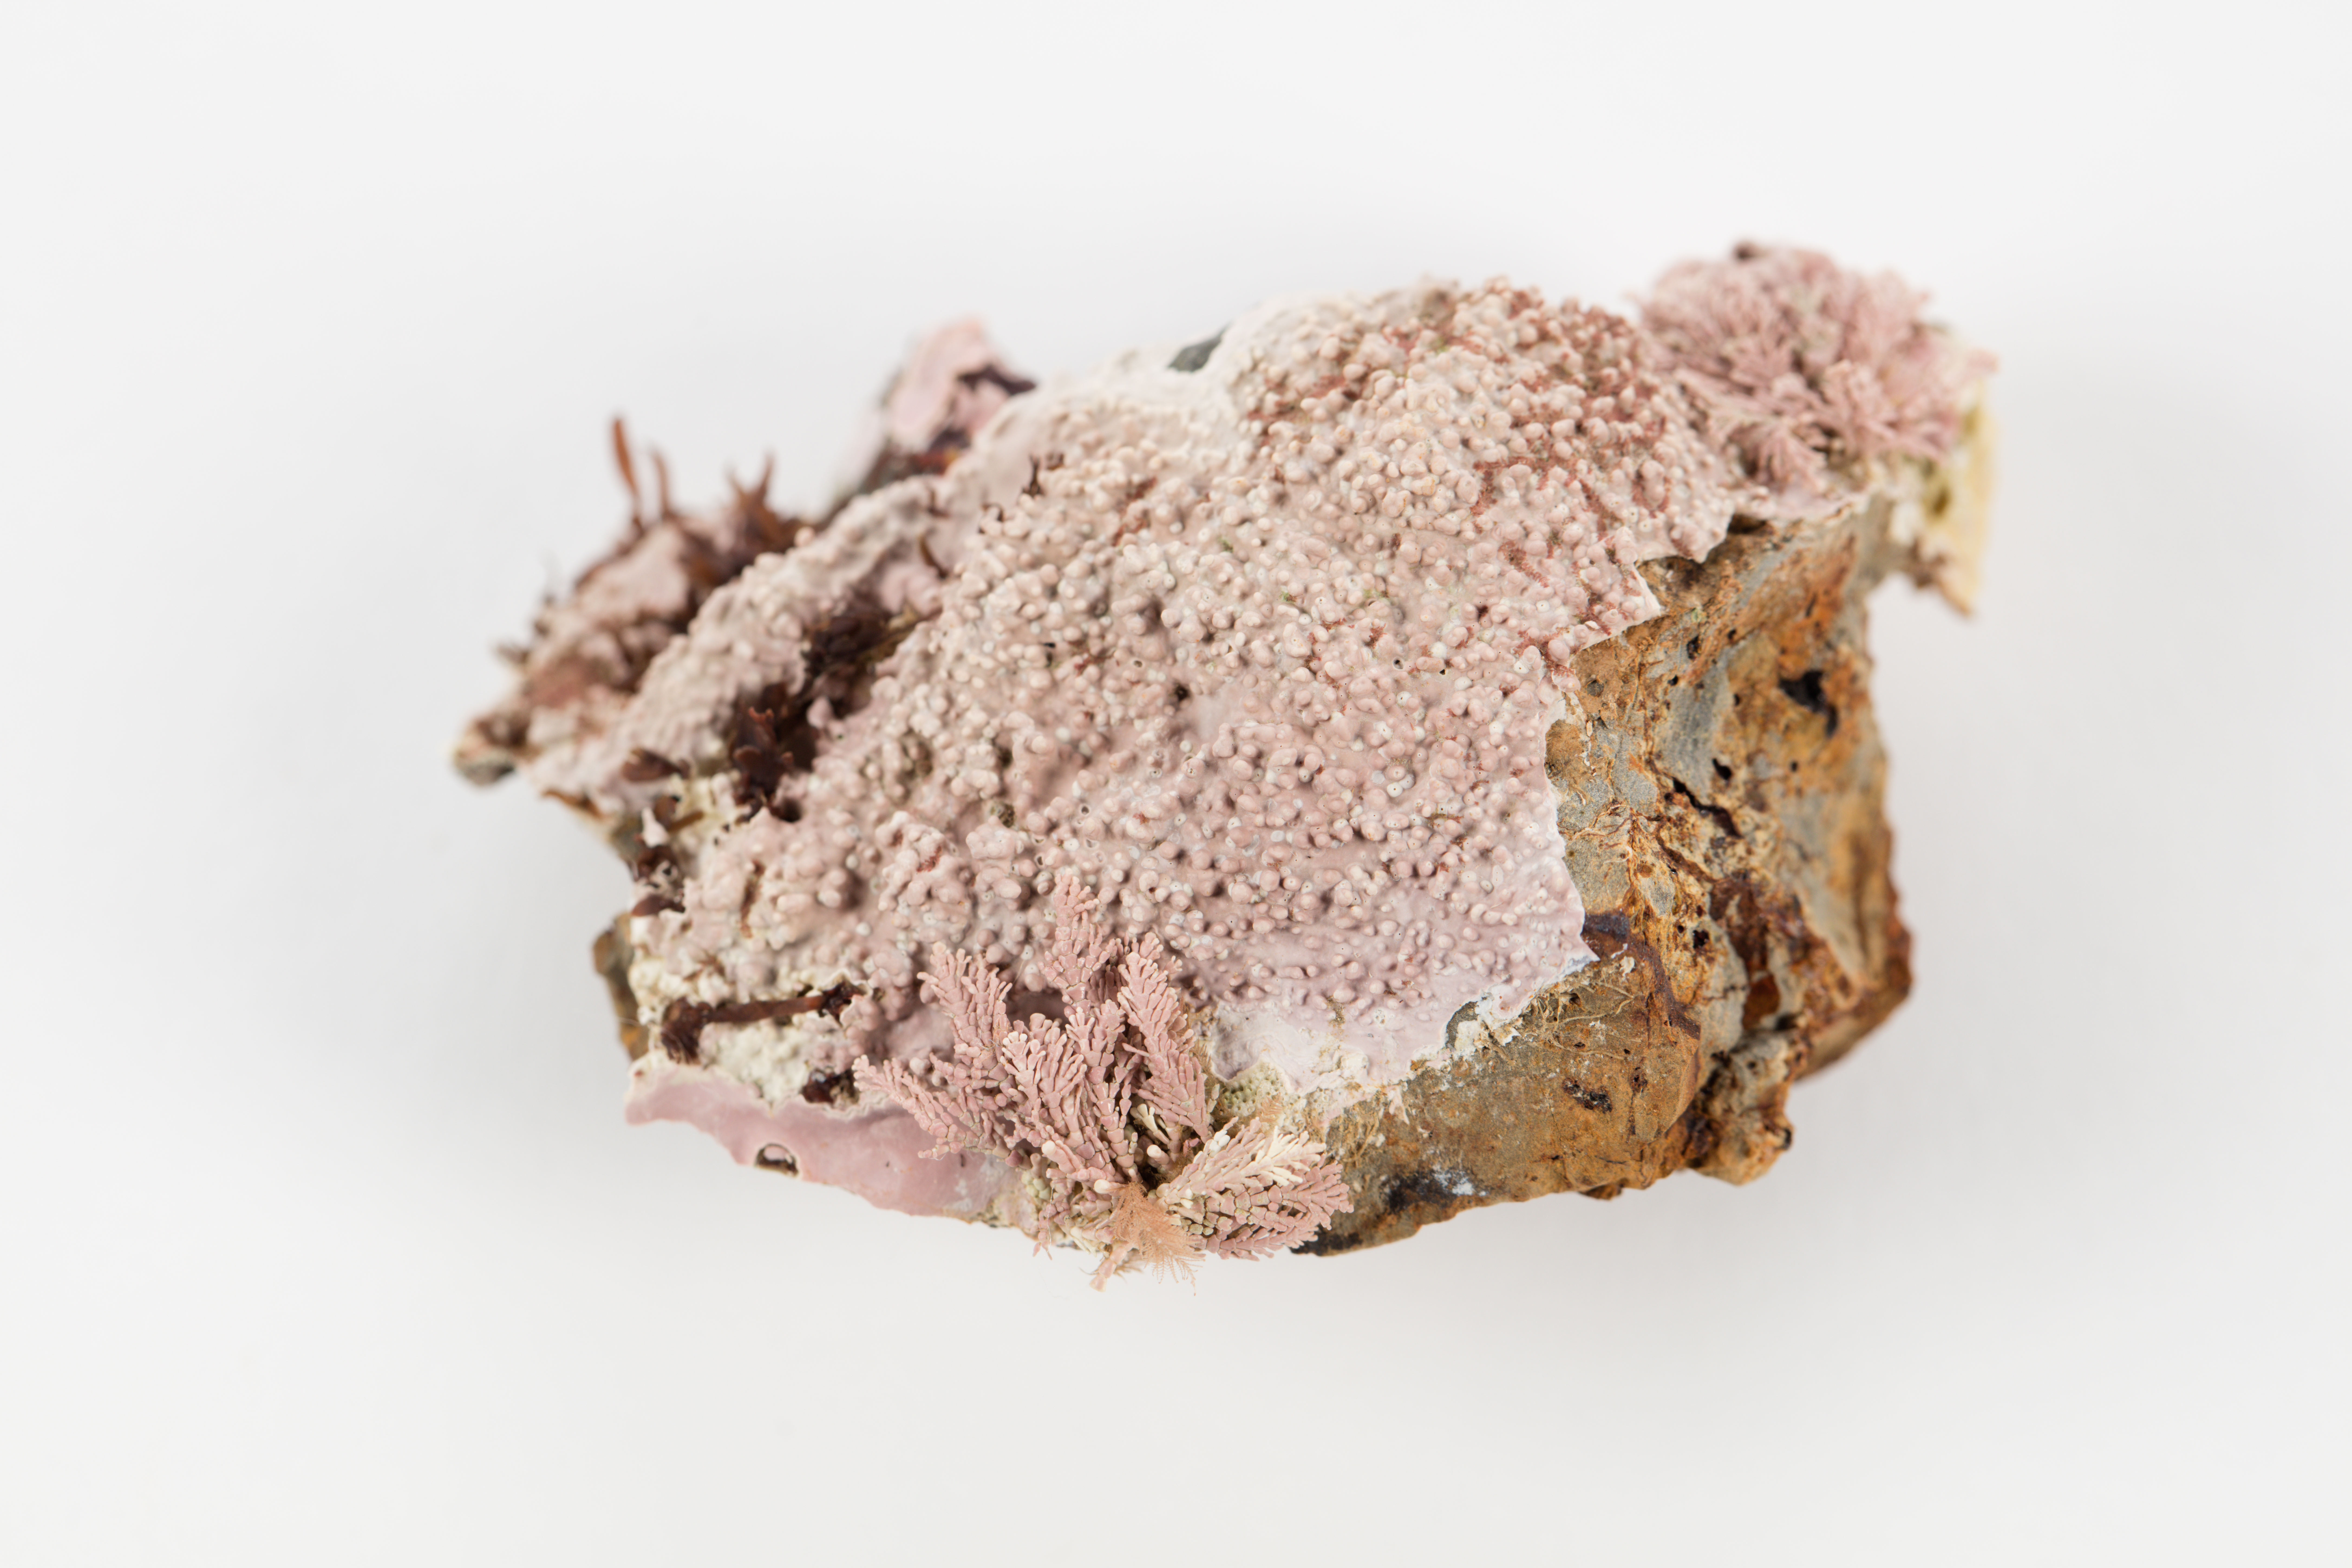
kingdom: Animalia
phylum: Cnidaria
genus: Lithophyllum
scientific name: Lithophyllum
